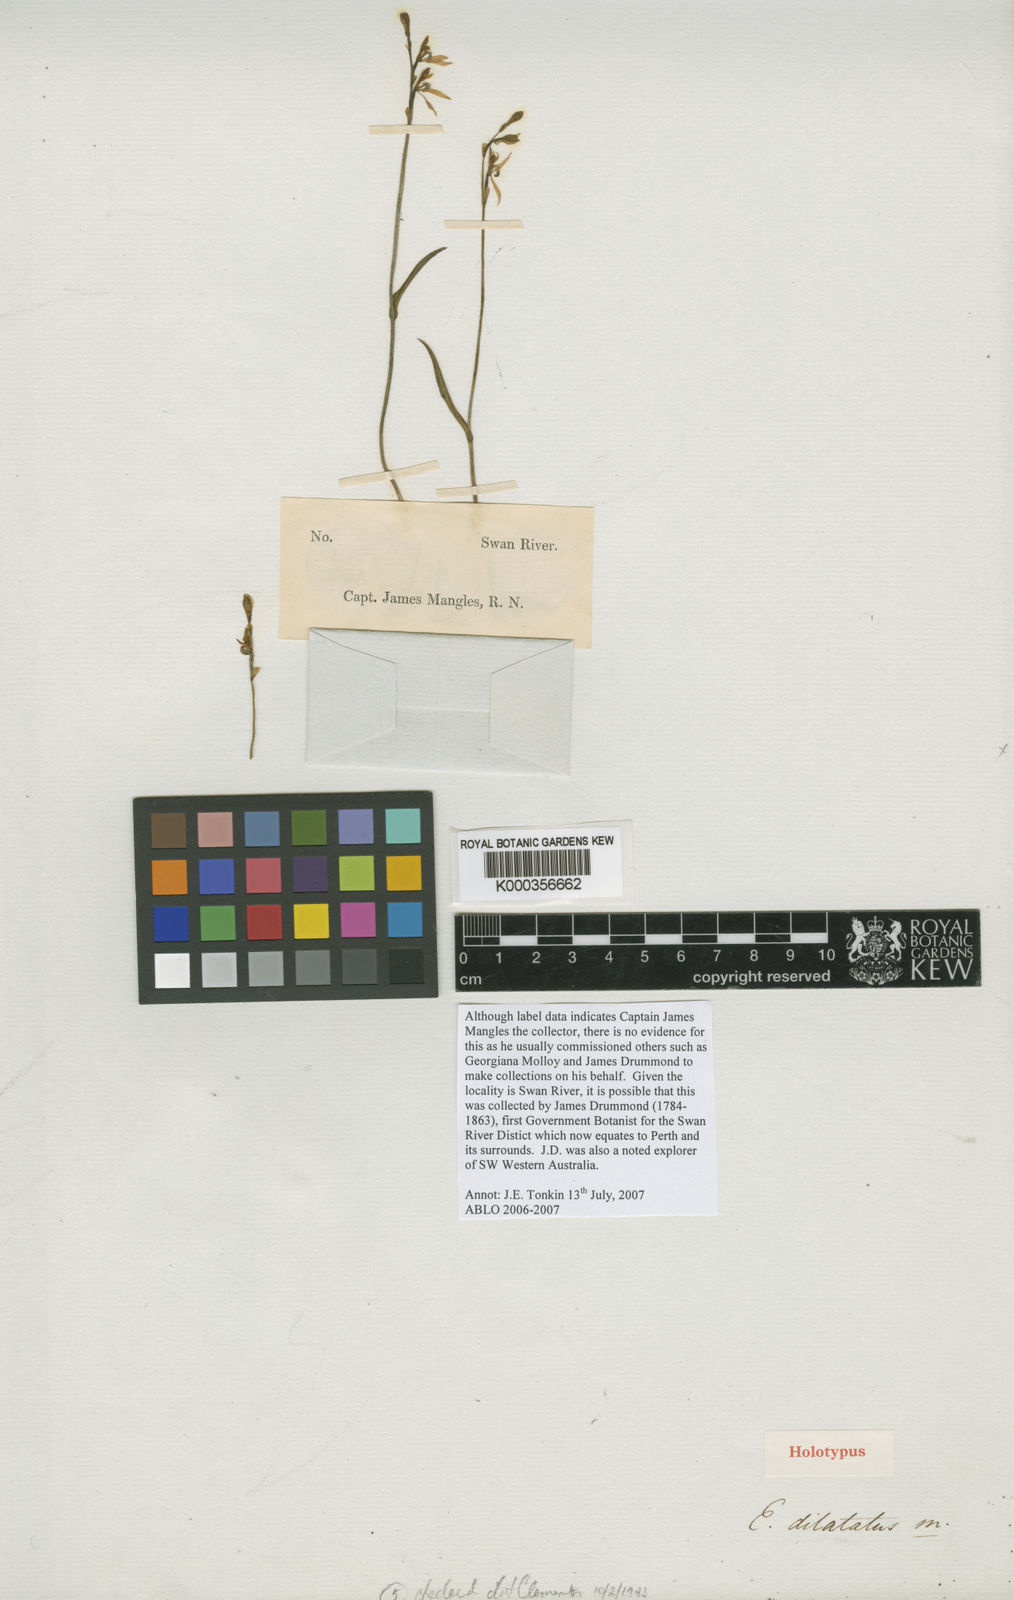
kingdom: Plantae
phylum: Tracheophyta
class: Liliopsida
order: Asparagales
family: Orchidaceae
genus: Eriochilus
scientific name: Eriochilus dilatatus
